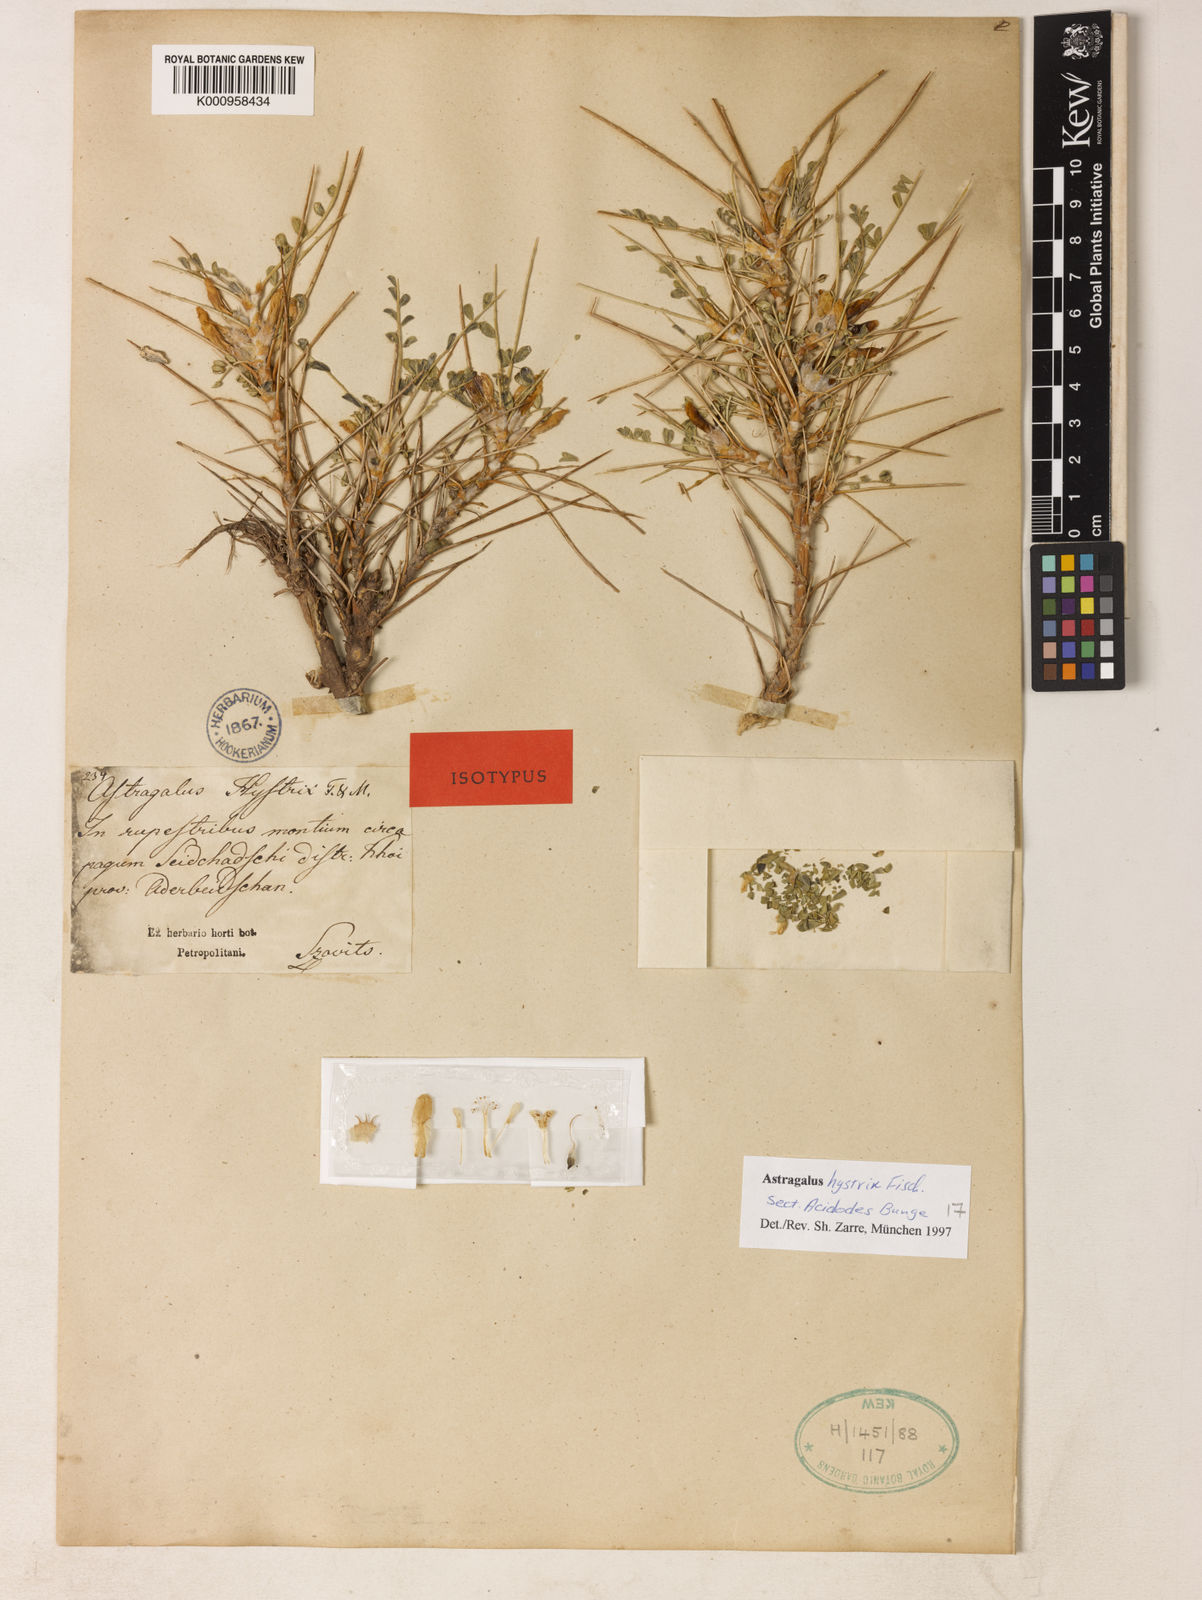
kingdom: Plantae
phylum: Tracheophyta
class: Magnoliopsida
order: Fabales
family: Fabaceae
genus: Astragalus
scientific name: Astragalus
